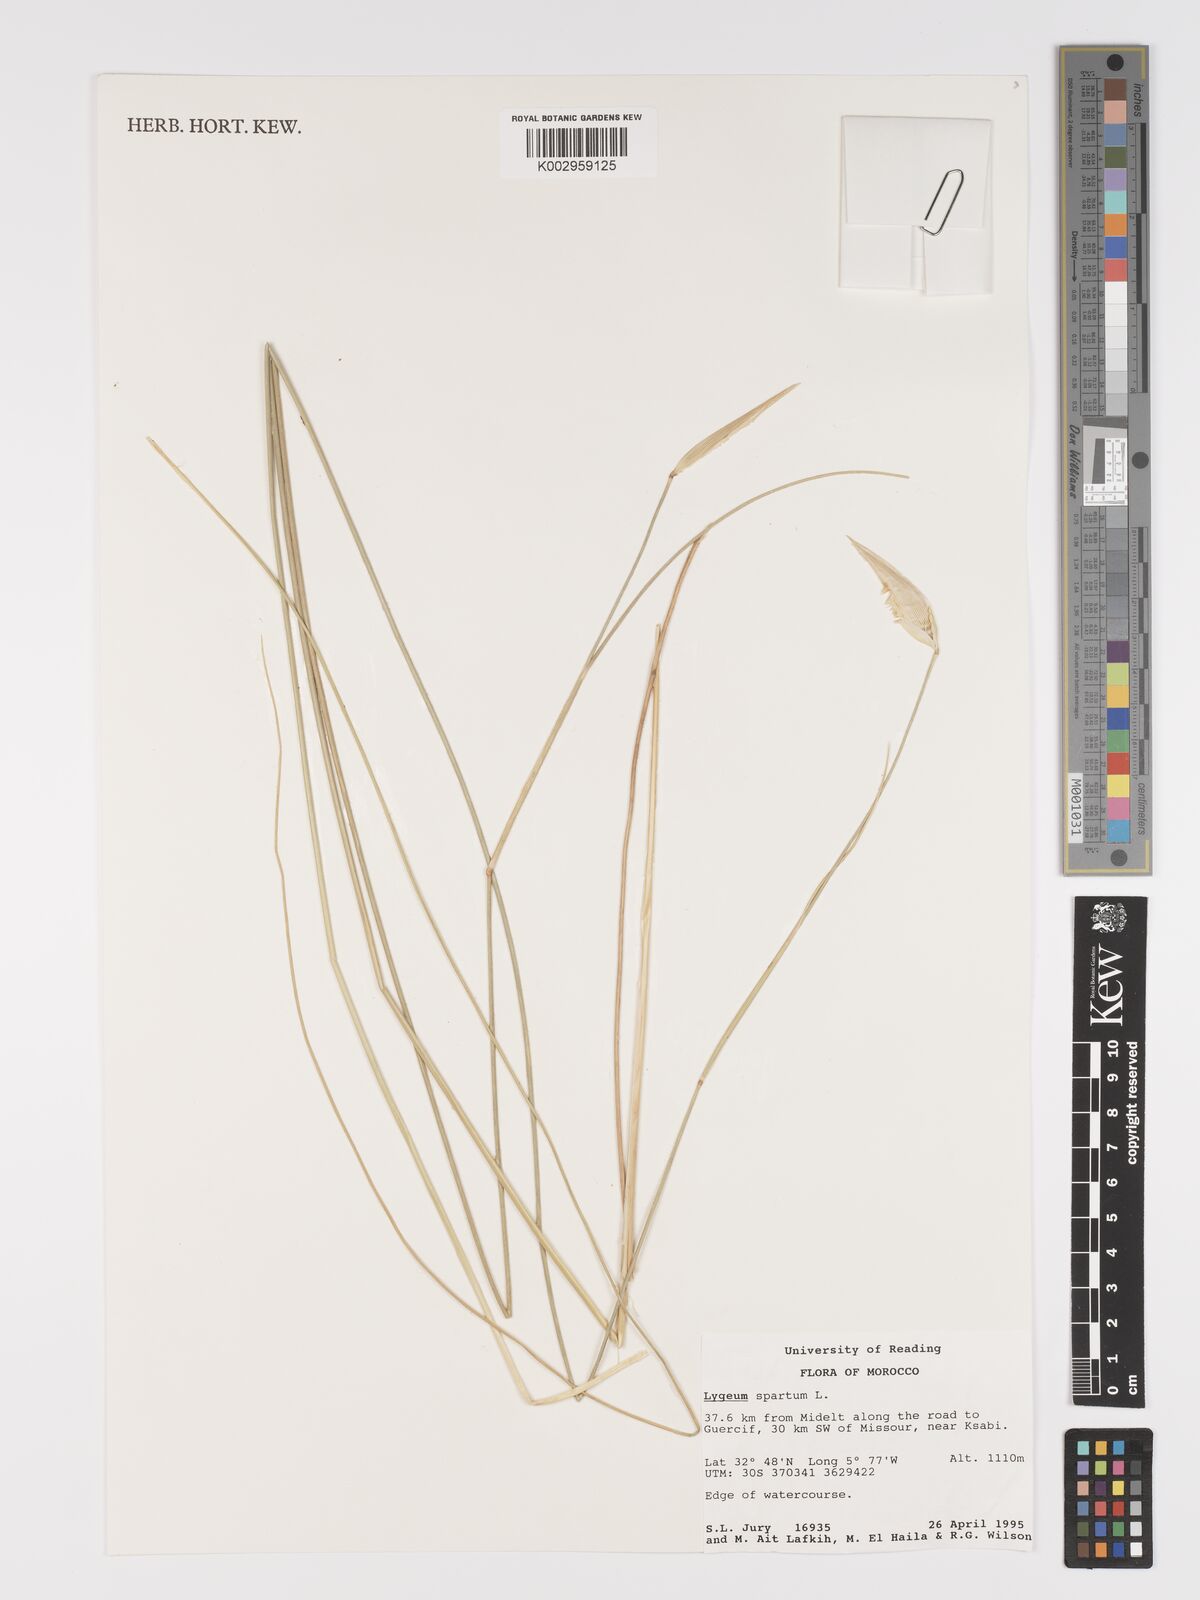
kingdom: Plantae
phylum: Tracheophyta
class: Liliopsida
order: Poales
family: Poaceae
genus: Lygeum
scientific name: Lygeum spartum
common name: Albardine
